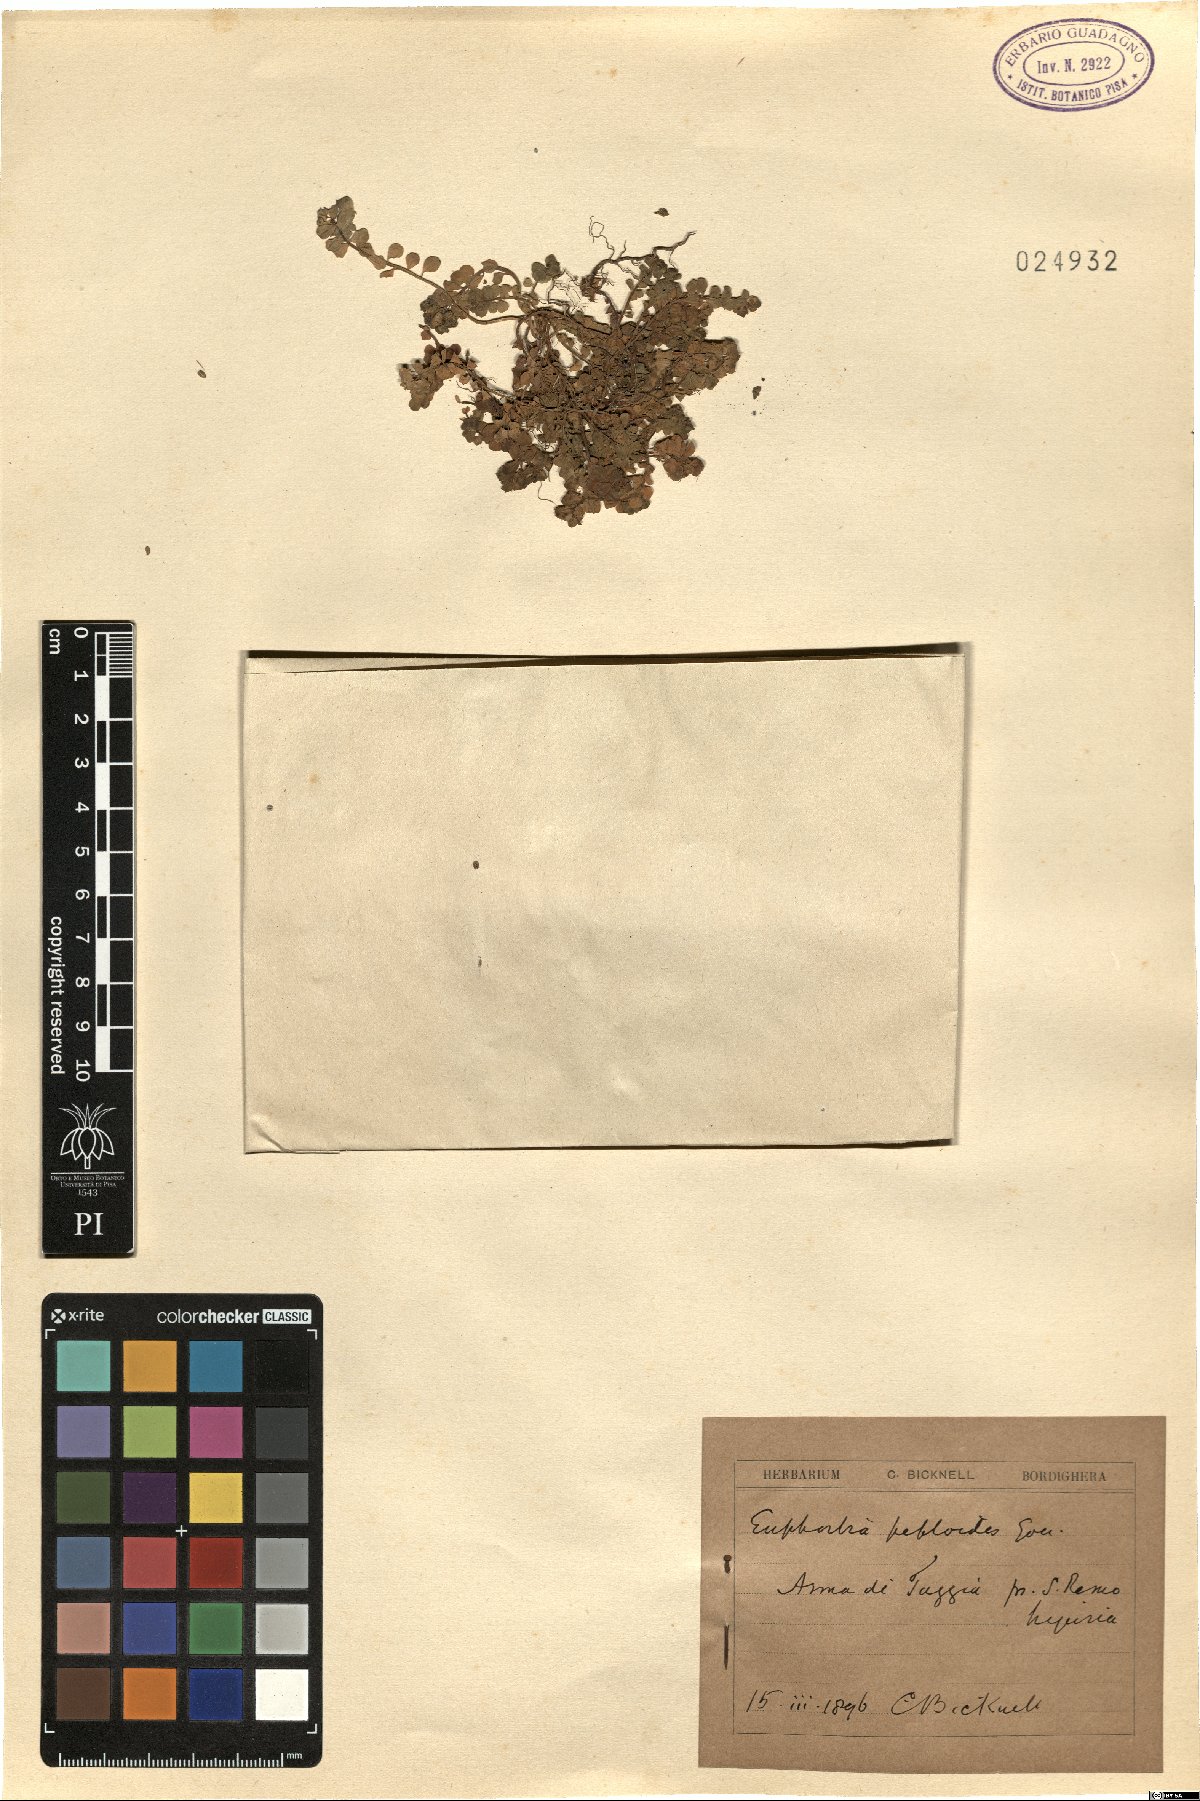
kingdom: Plantae
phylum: Tracheophyta
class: Magnoliopsida
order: Malpighiales
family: Euphorbiaceae
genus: Euphorbia
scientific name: Euphorbia peplus
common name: Petty spurge
